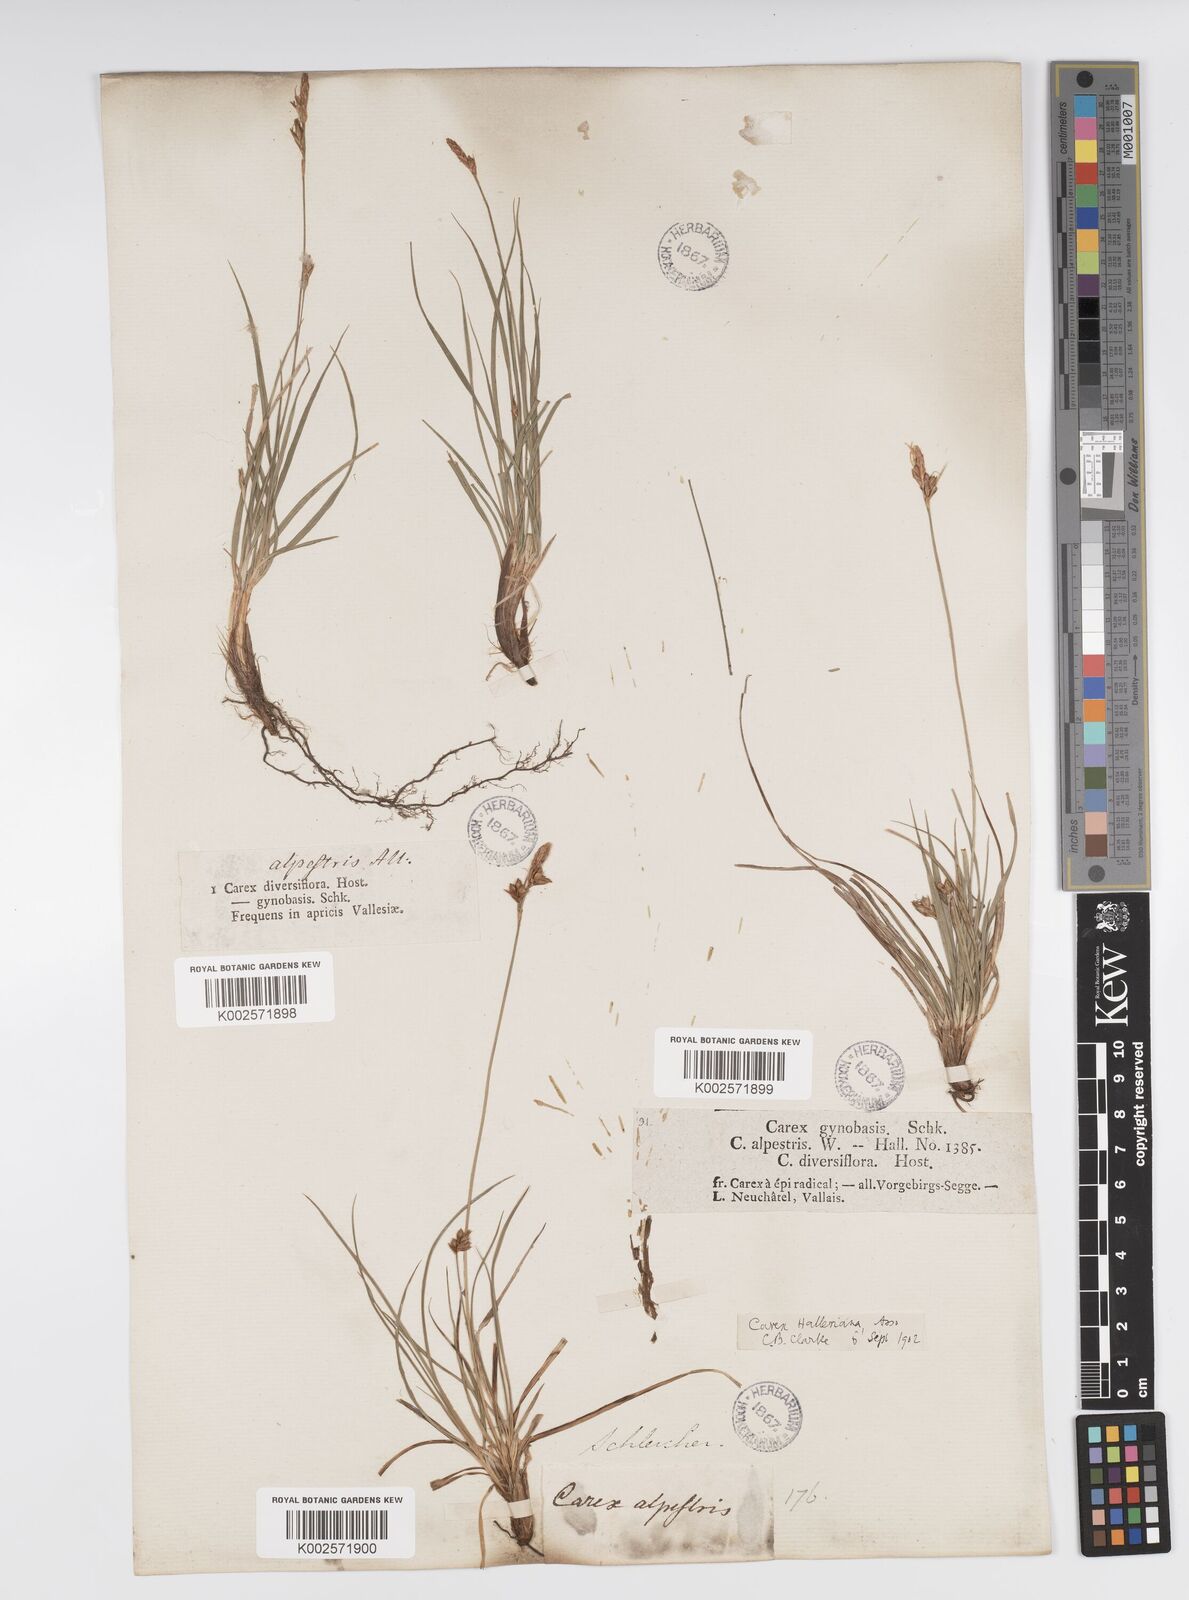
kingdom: Plantae
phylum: Tracheophyta
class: Liliopsida
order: Poales
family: Cyperaceae
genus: Carex
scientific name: Carex halleriana
